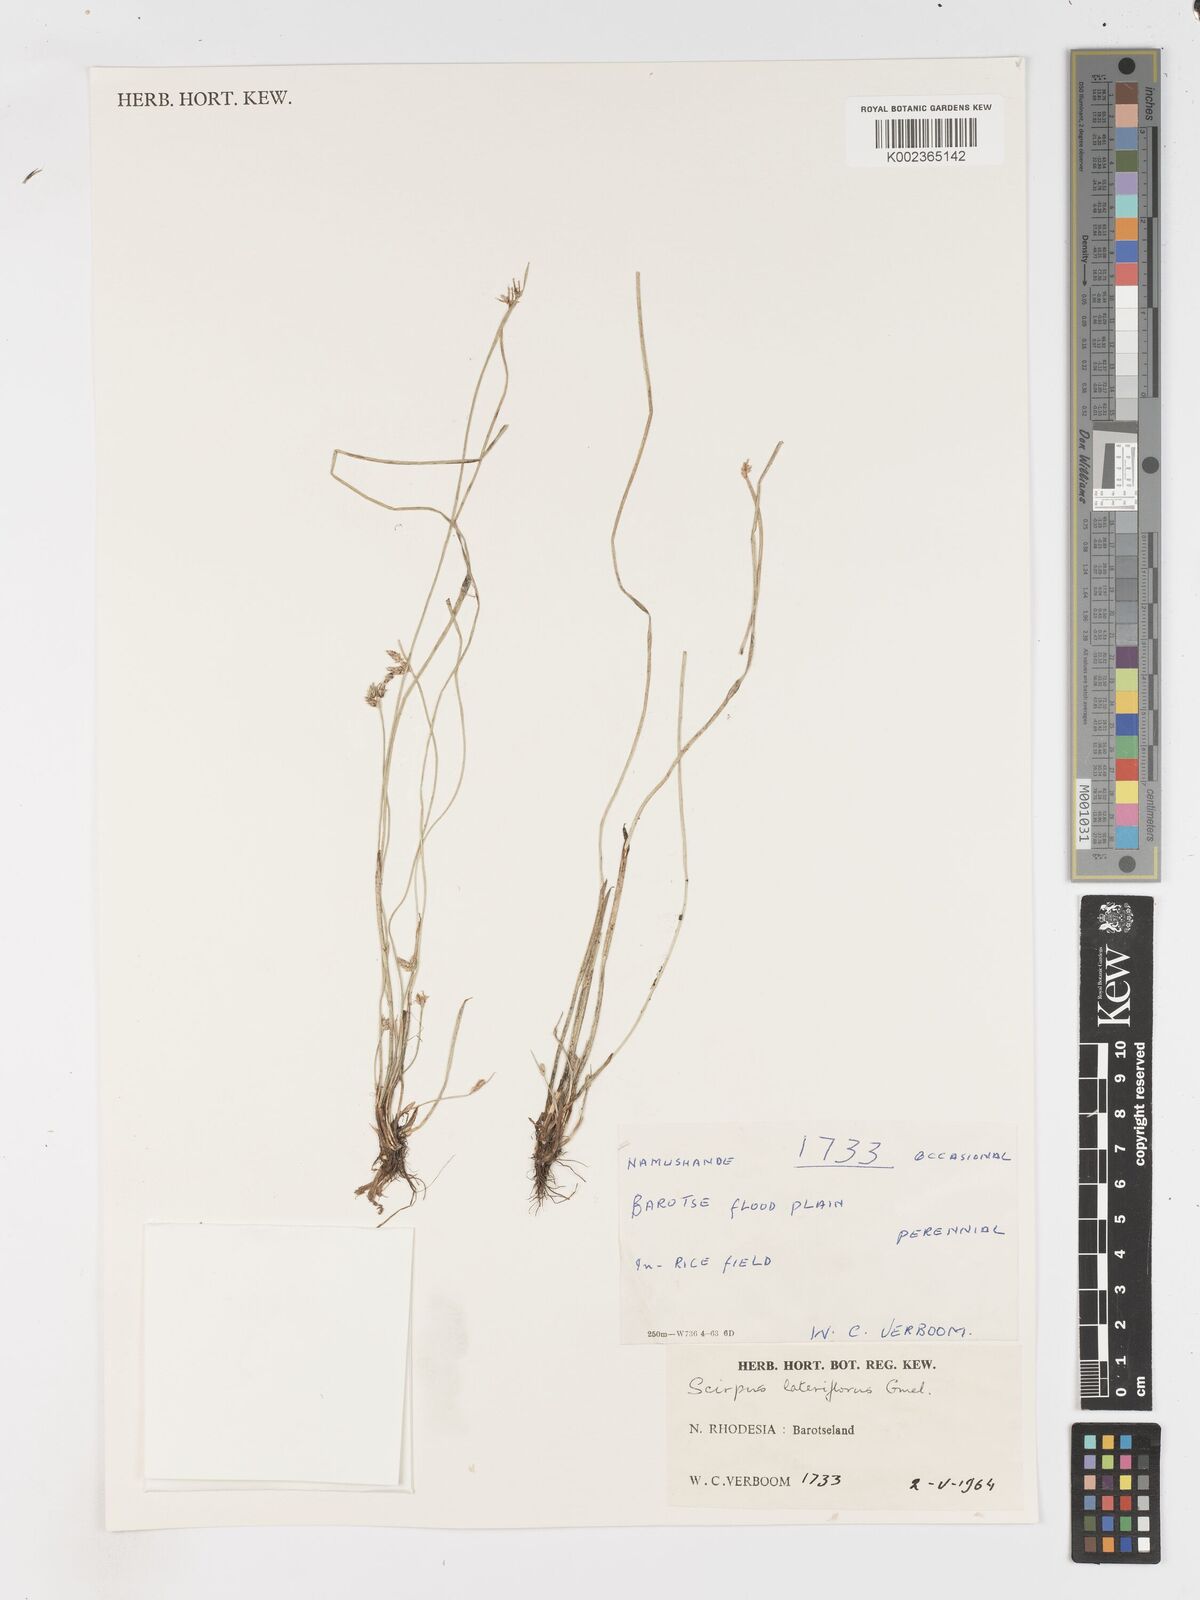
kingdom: Plantae
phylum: Tracheophyta
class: Liliopsida
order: Poales
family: Cyperaceae
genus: Schoenoplectiella
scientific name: Schoenoplectiella lateriflora
